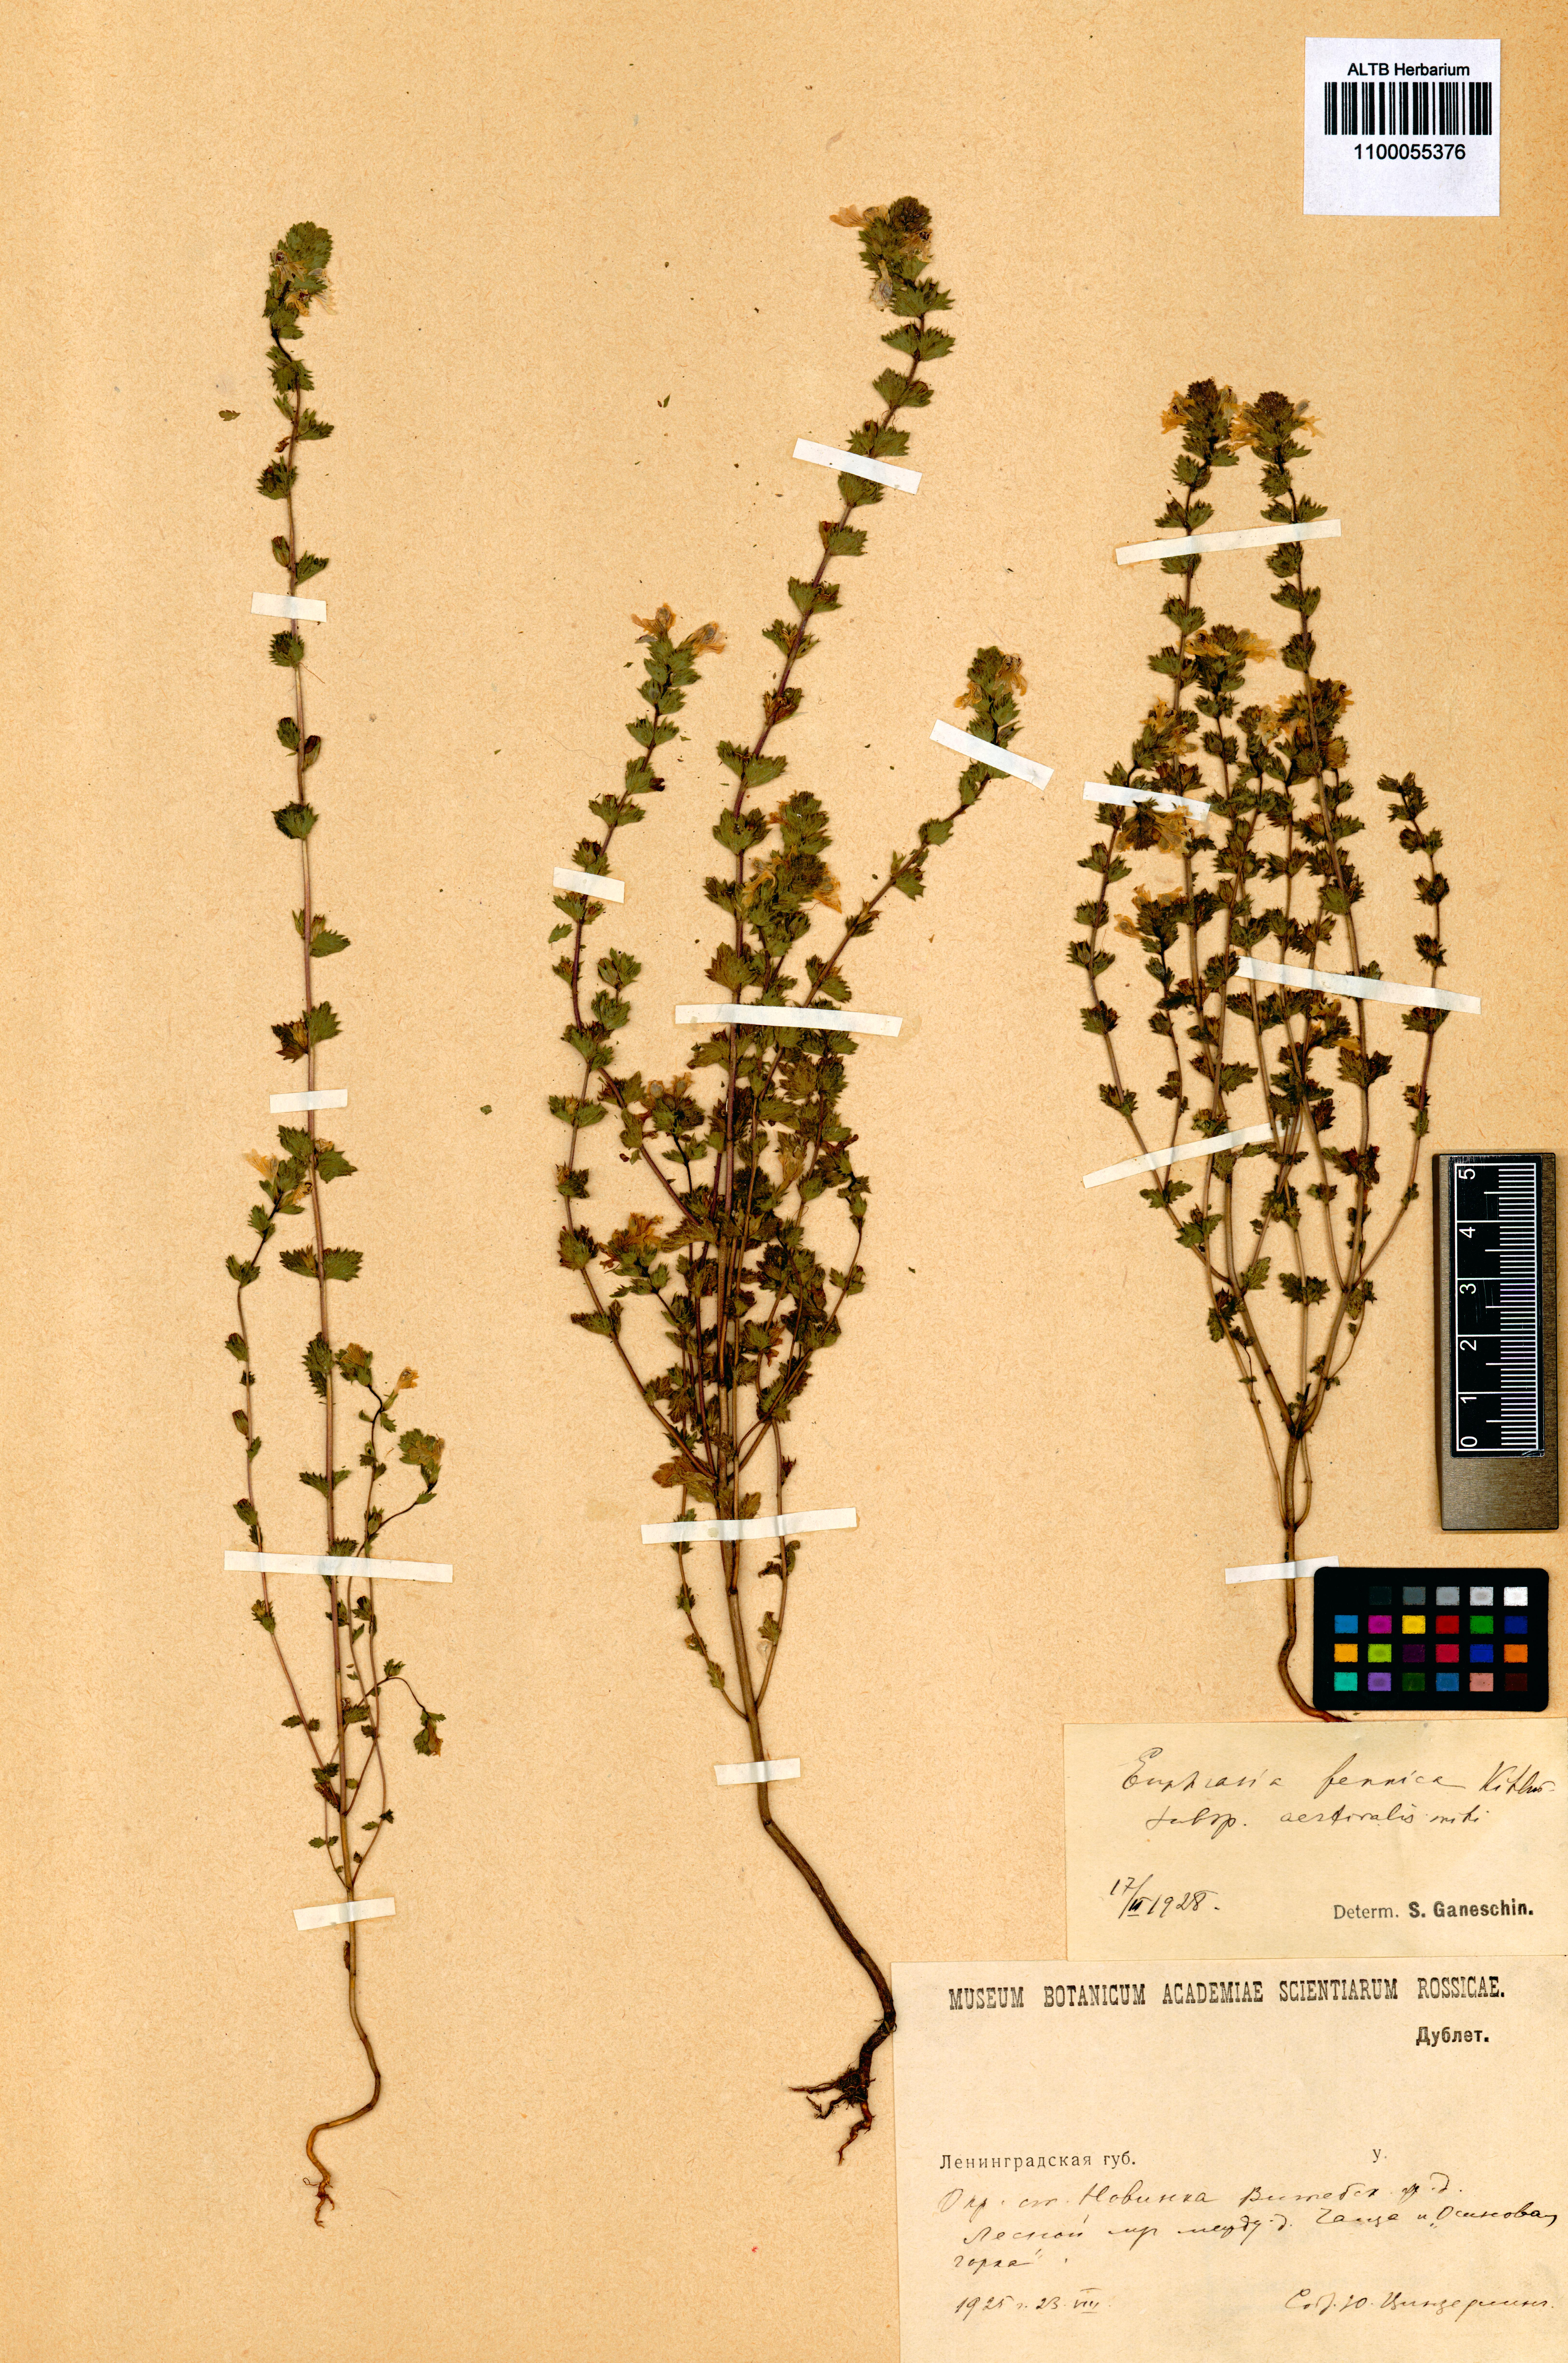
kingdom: Plantae
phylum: Tracheophyta
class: Magnoliopsida
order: Lamiales
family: Orobanchaceae
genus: Euphrasia
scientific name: Euphrasia officinalis
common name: Eyebright
